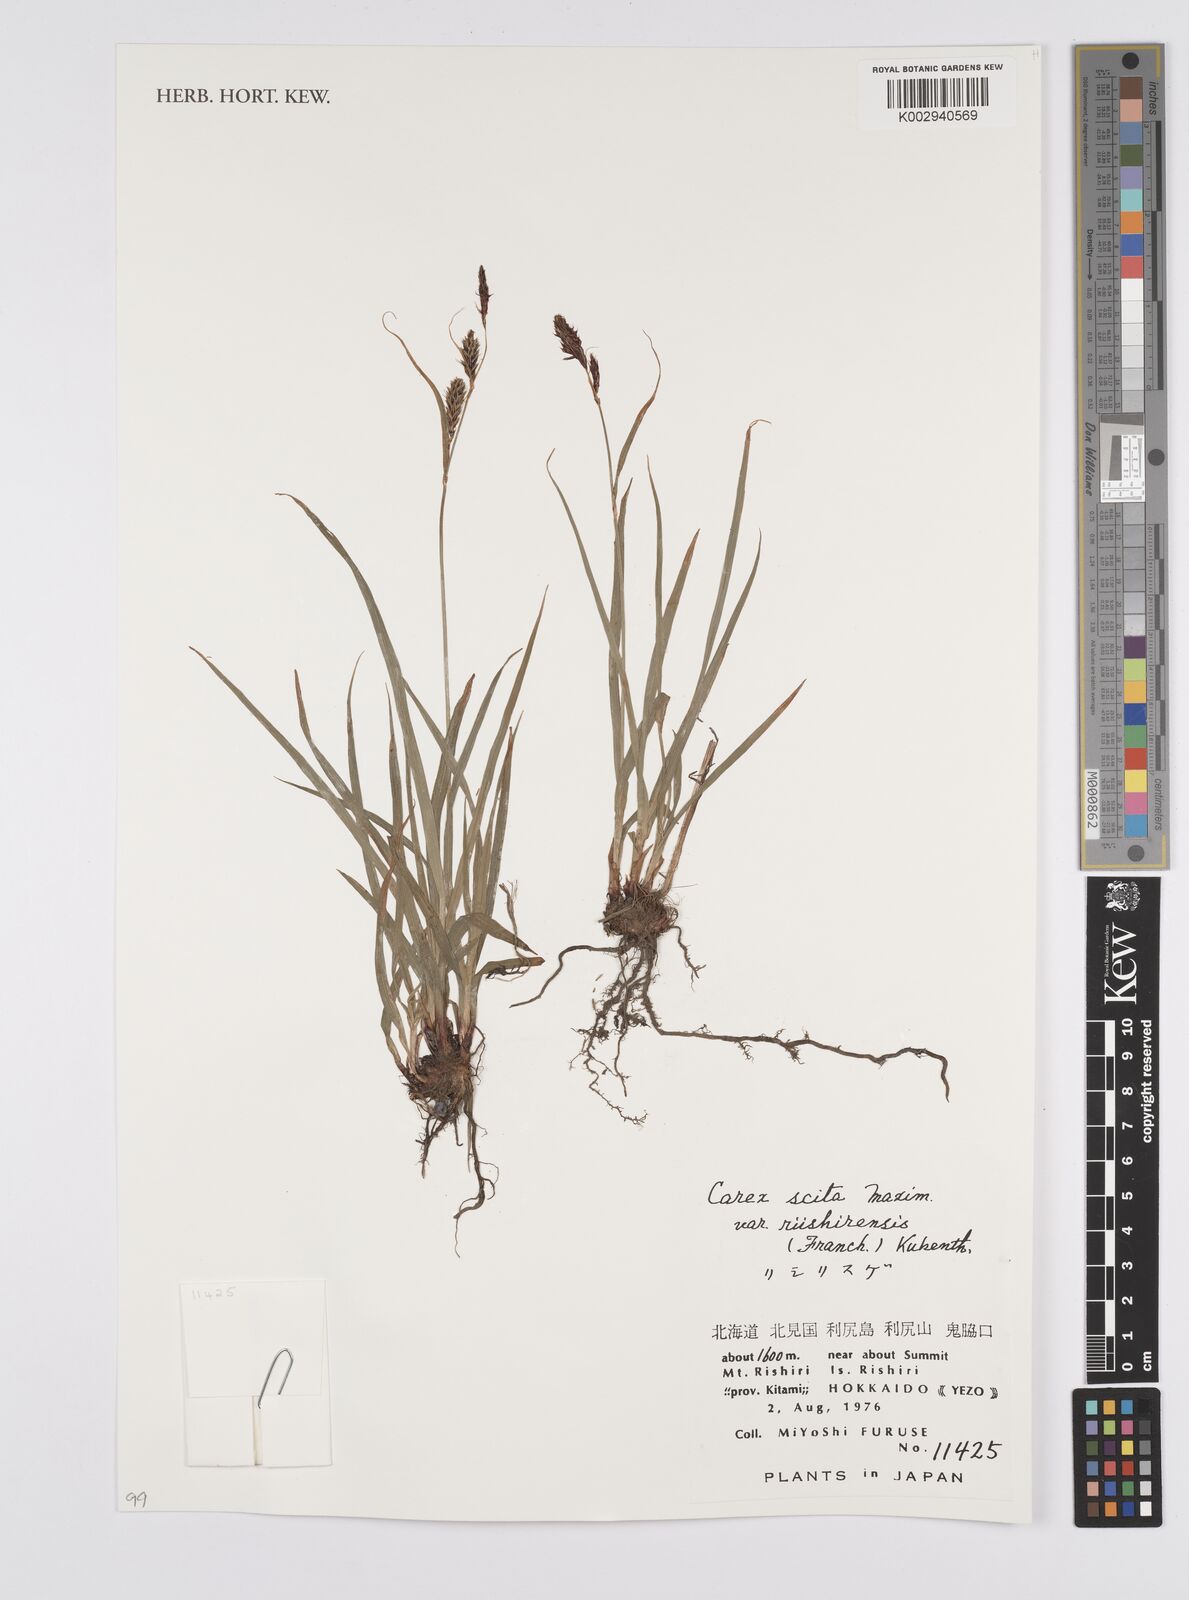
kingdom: Plantae
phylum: Tracheophyta
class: Liliopsida
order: Poales
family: Cyperaceae
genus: Carex
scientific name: Carex scita
